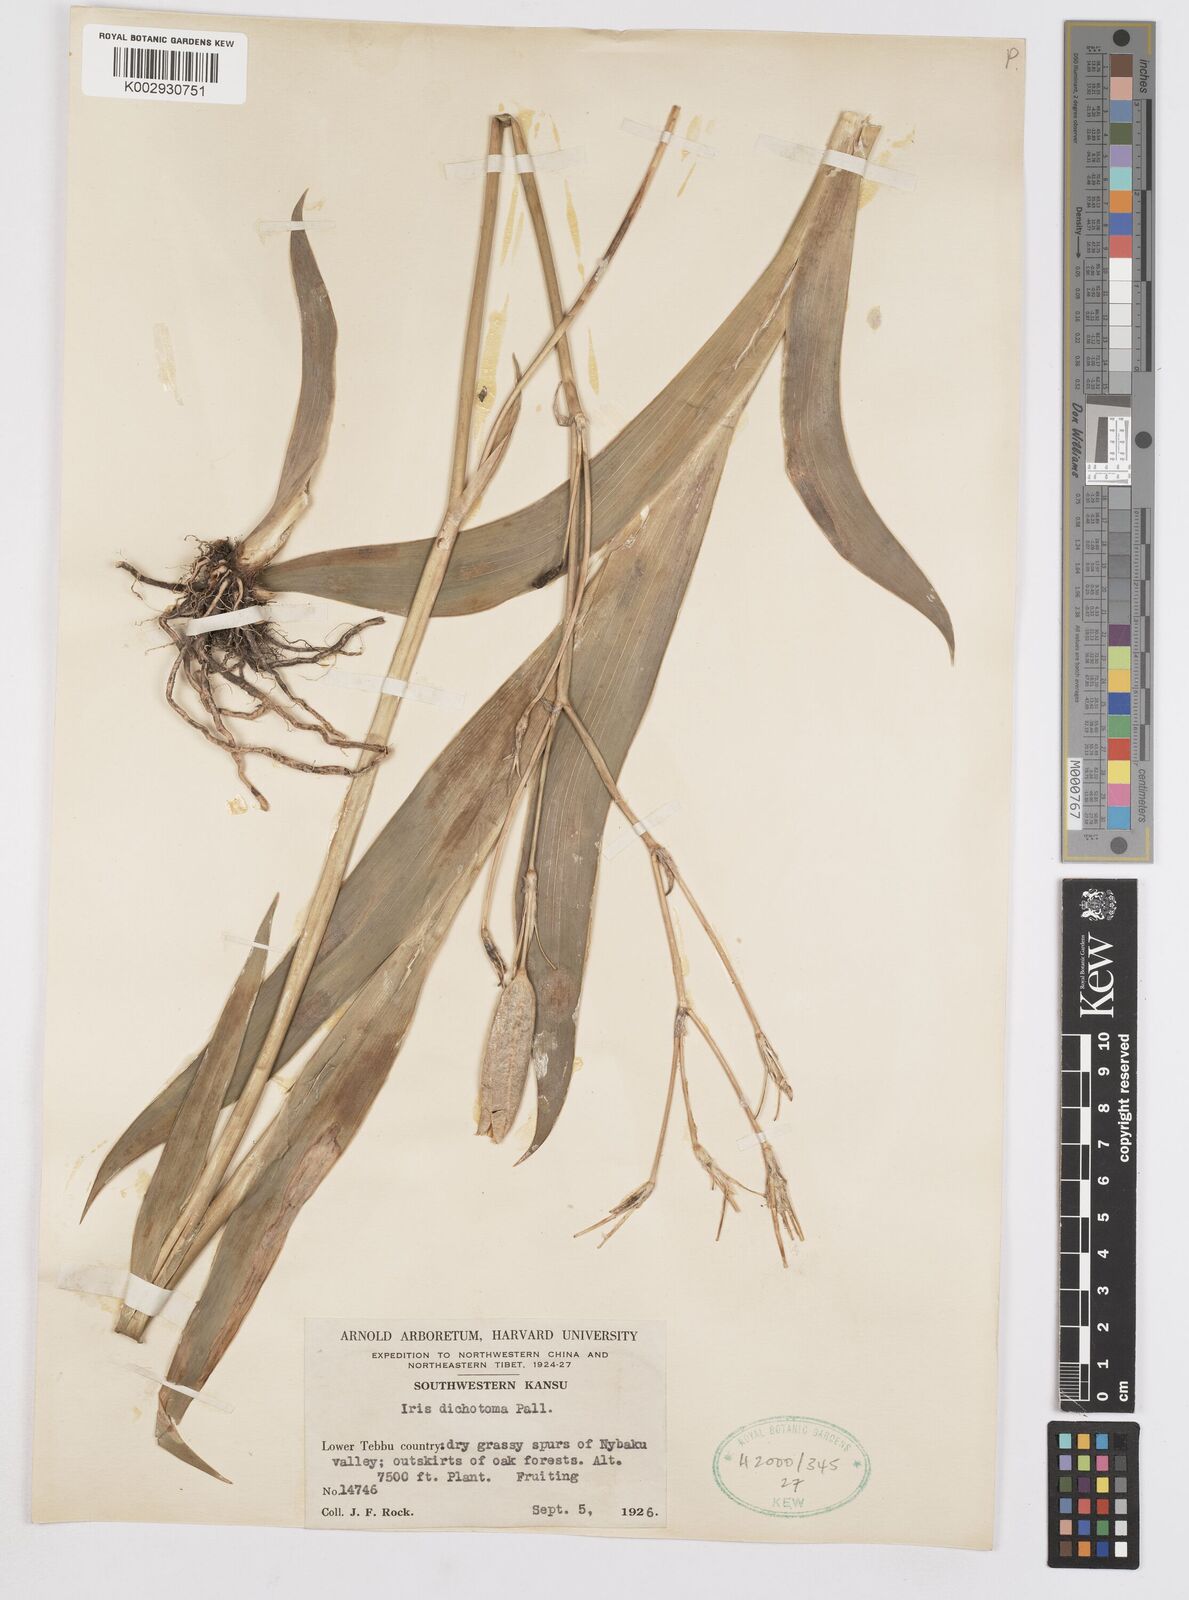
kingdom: Plantae
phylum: Tracheophyta
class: Liliopsida
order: Asparagales
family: Iridaceae
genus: Iris
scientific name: Iris dichotoma
